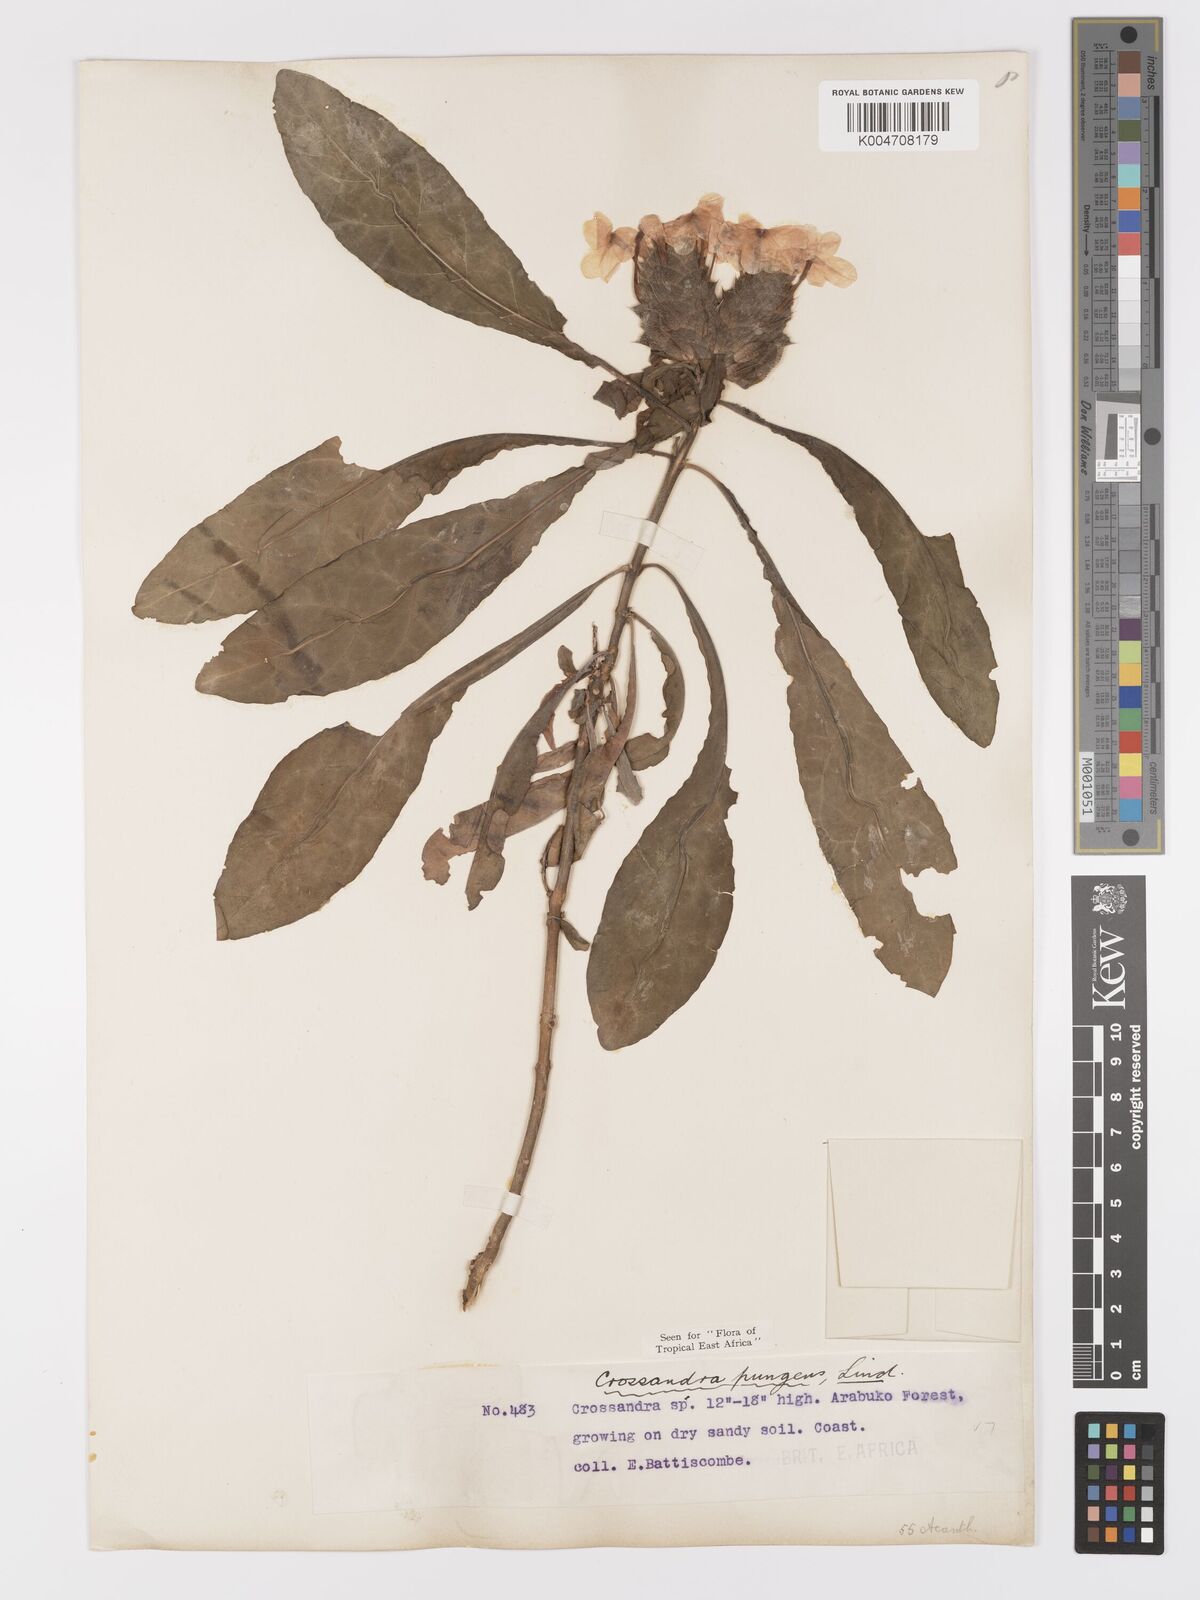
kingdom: Plantae
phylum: Tracheophyta
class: Magnoliopsida
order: Lamiales
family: Acanthaceae
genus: Crossandra
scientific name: Crossandra pungens
